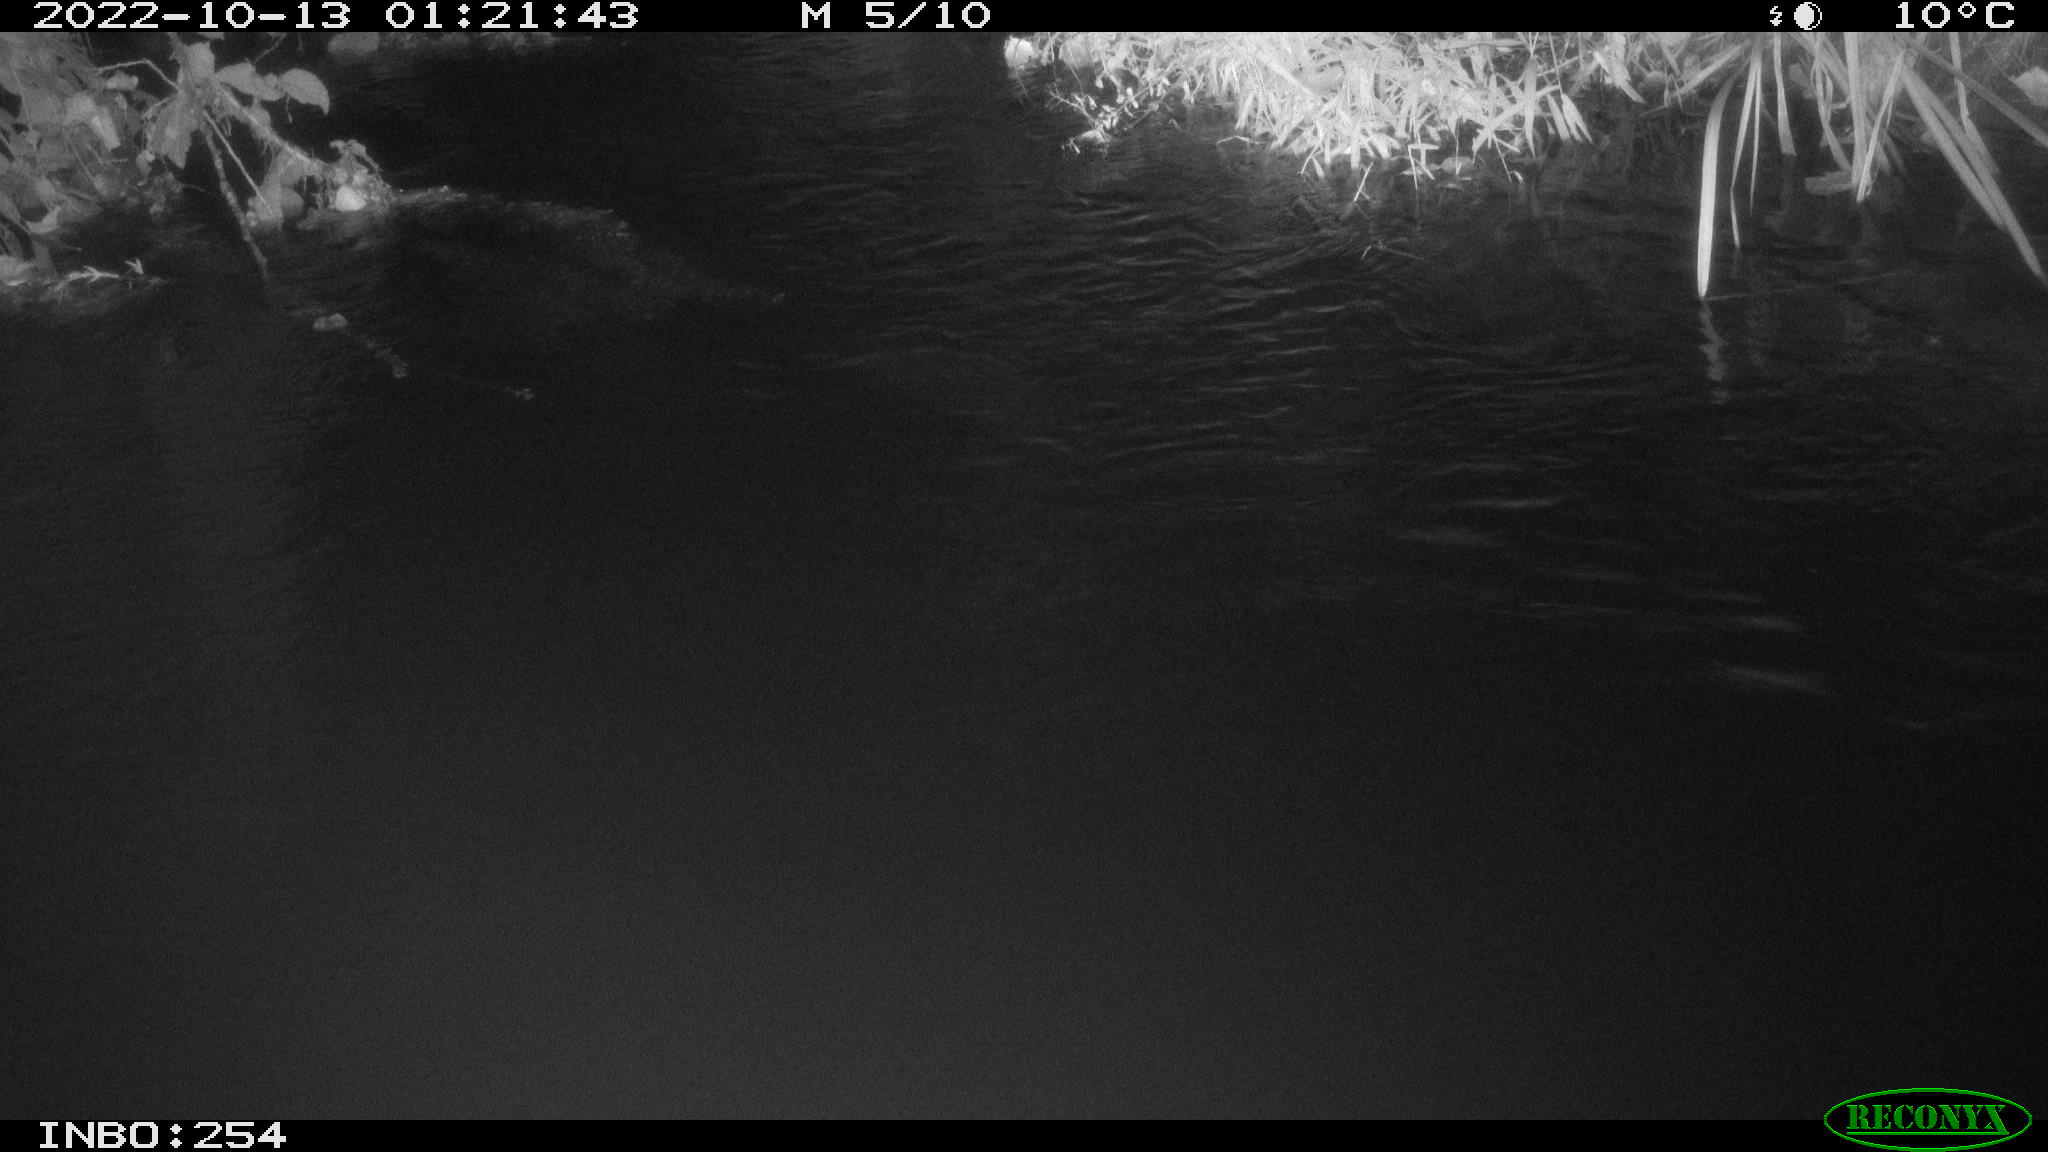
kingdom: Animalia
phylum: Chordata
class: Aves
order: Anseriformes
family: Anatidae
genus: Anas
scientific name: Anas
